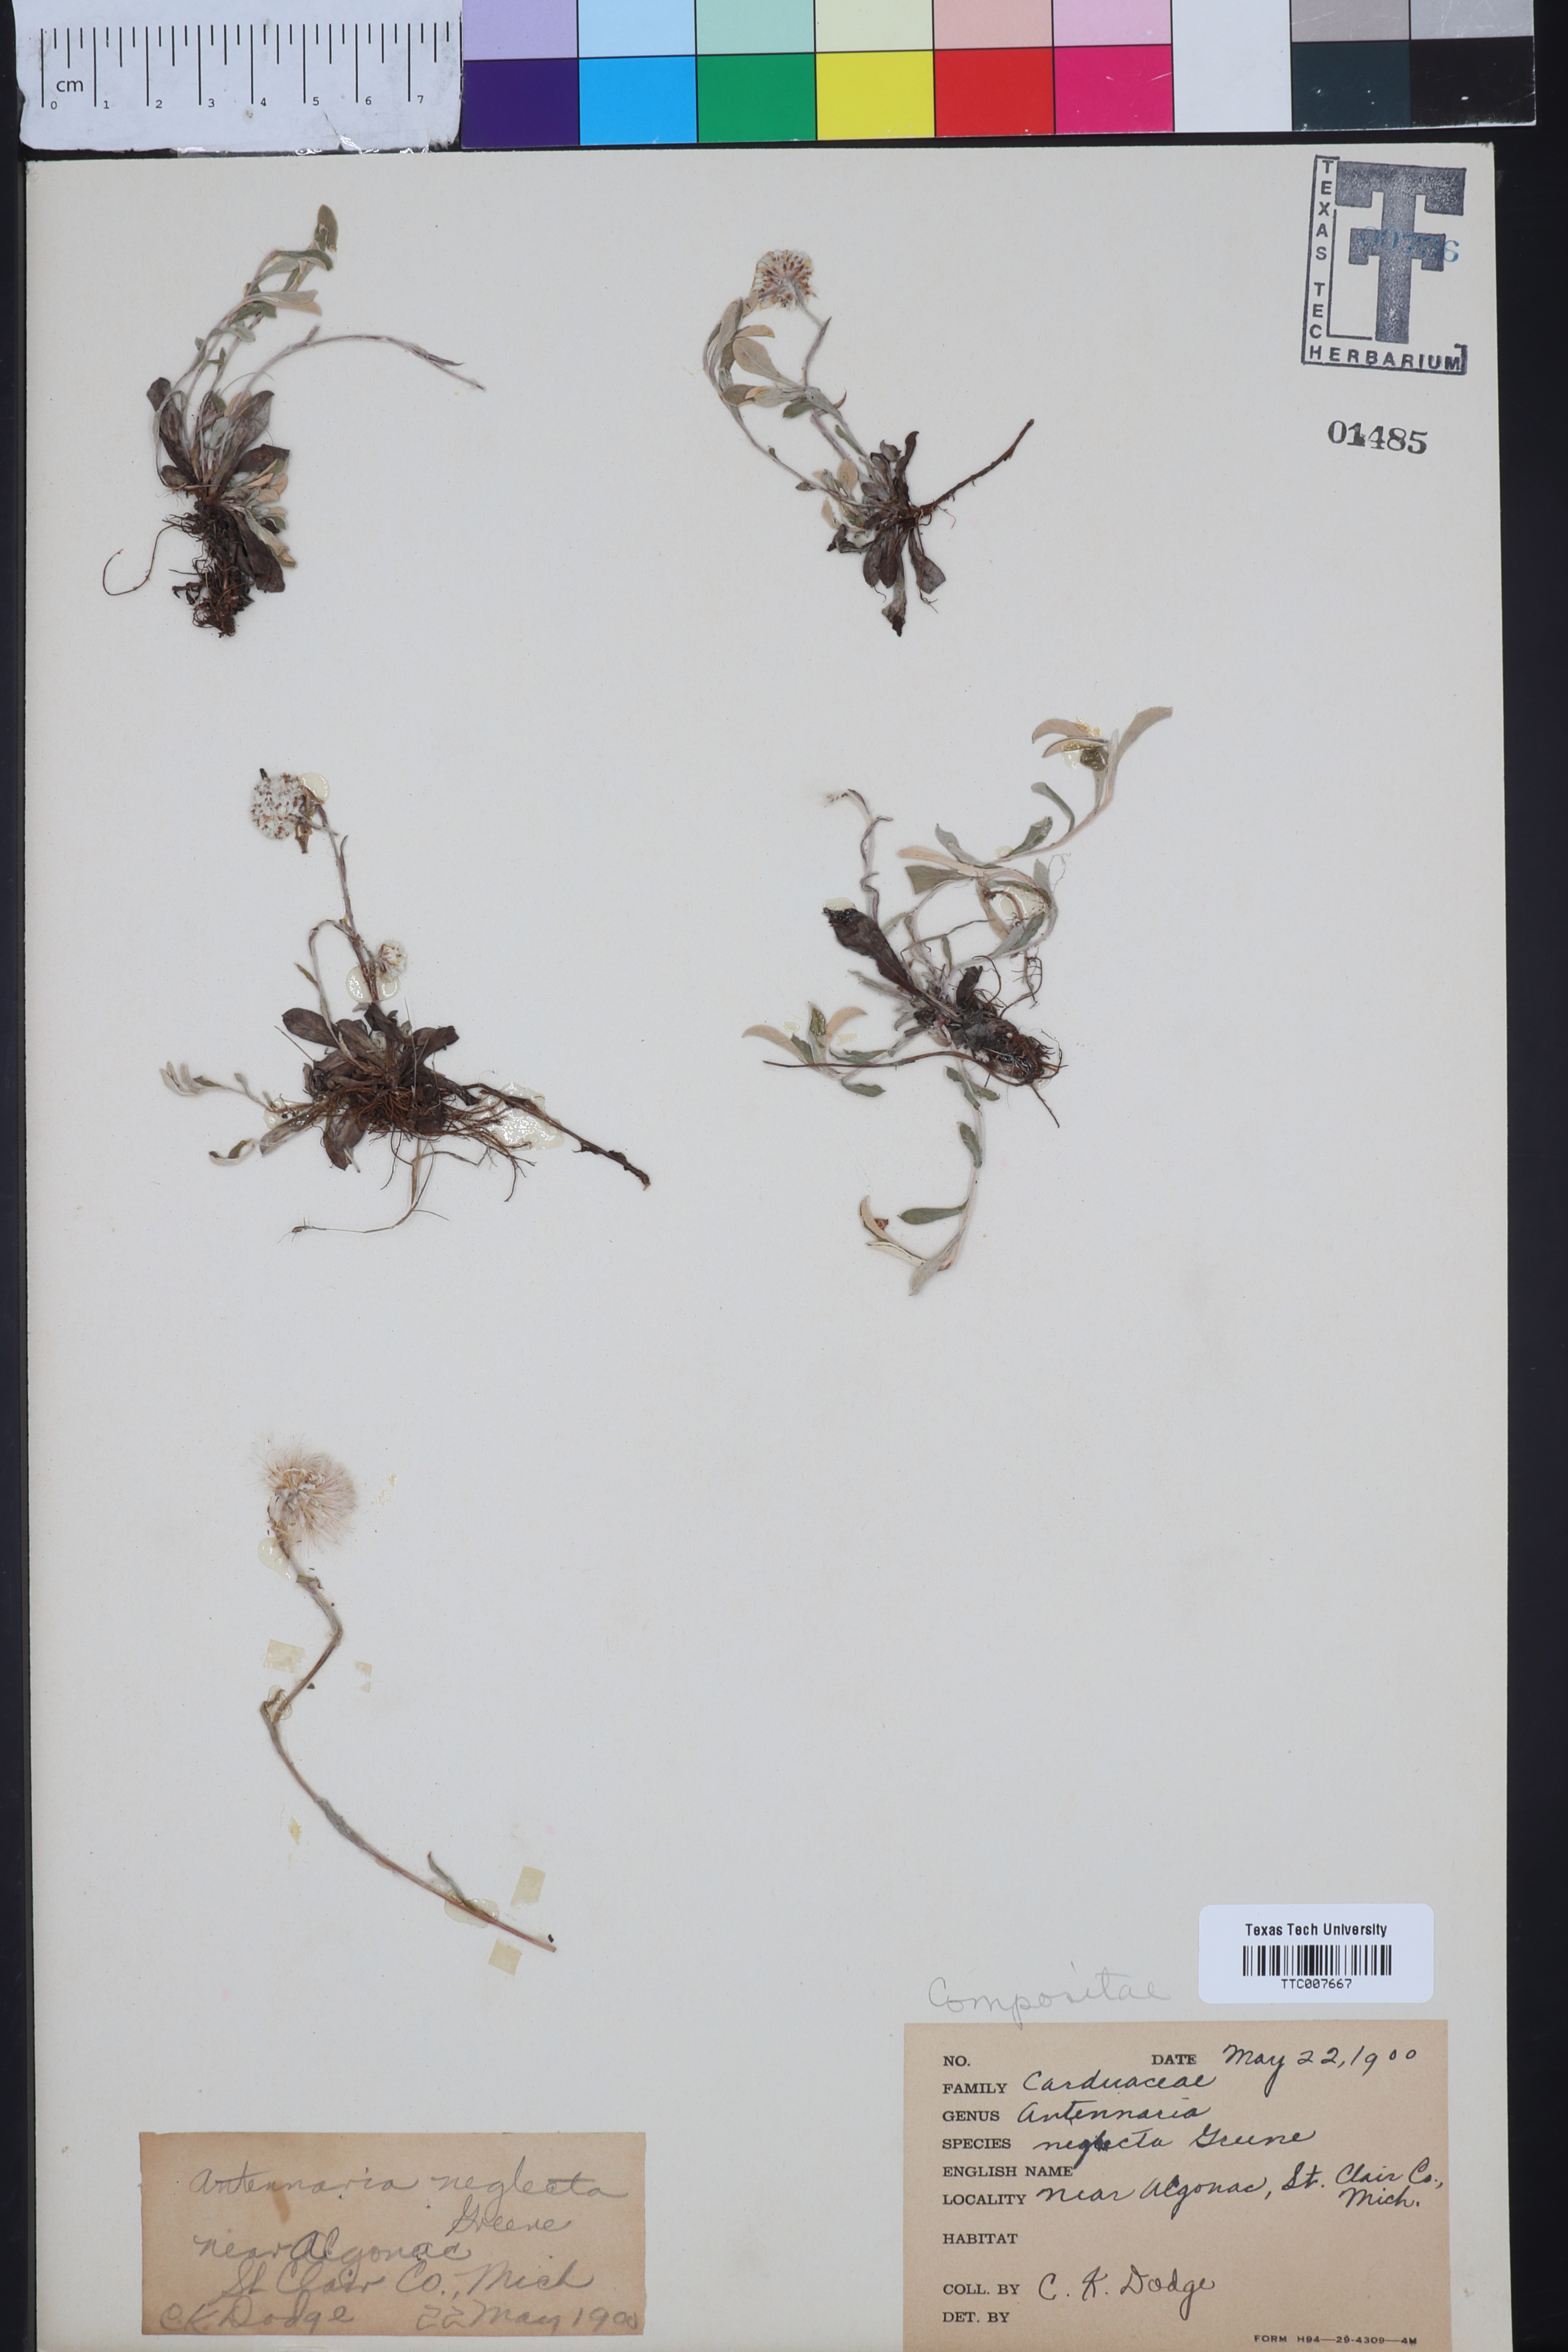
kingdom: Plantae
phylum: Tracheophyta
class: Magnoliopsida
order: Asterales
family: Asteraceae
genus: Antennaria
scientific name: Antennaria neglecta
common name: Field pussytoes
